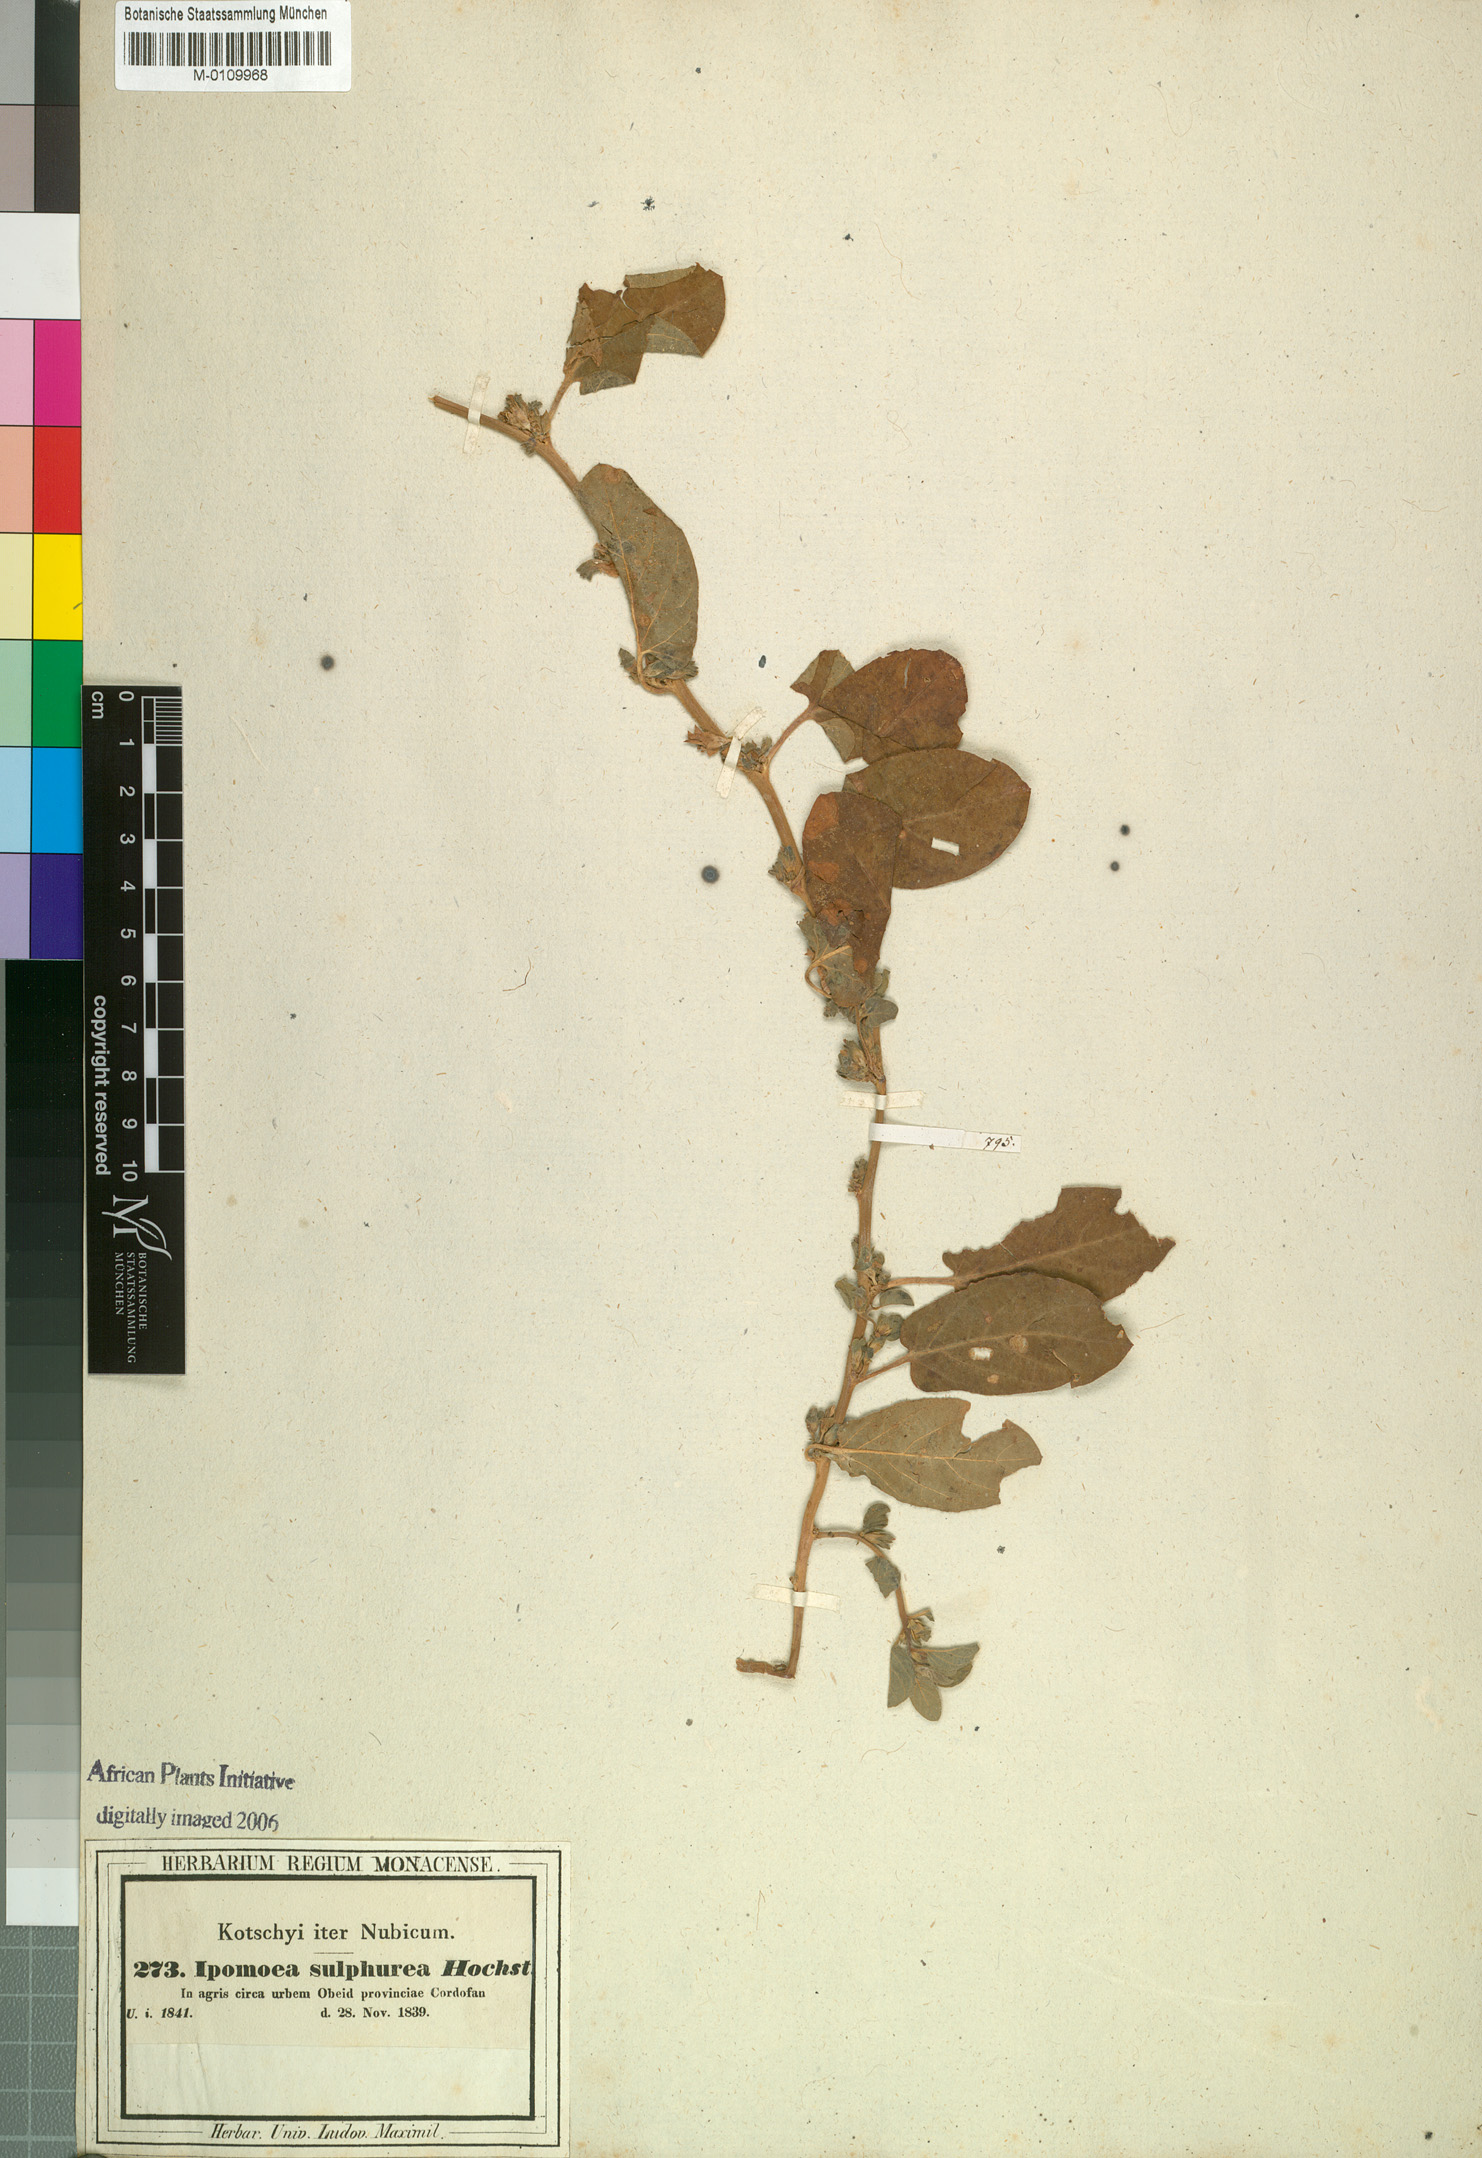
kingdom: Plantae
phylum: Tracheophyta
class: Magnoliopsida
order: Solanales
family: Convolvulaceae
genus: Ipomoea
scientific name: Ipomoea vagans
